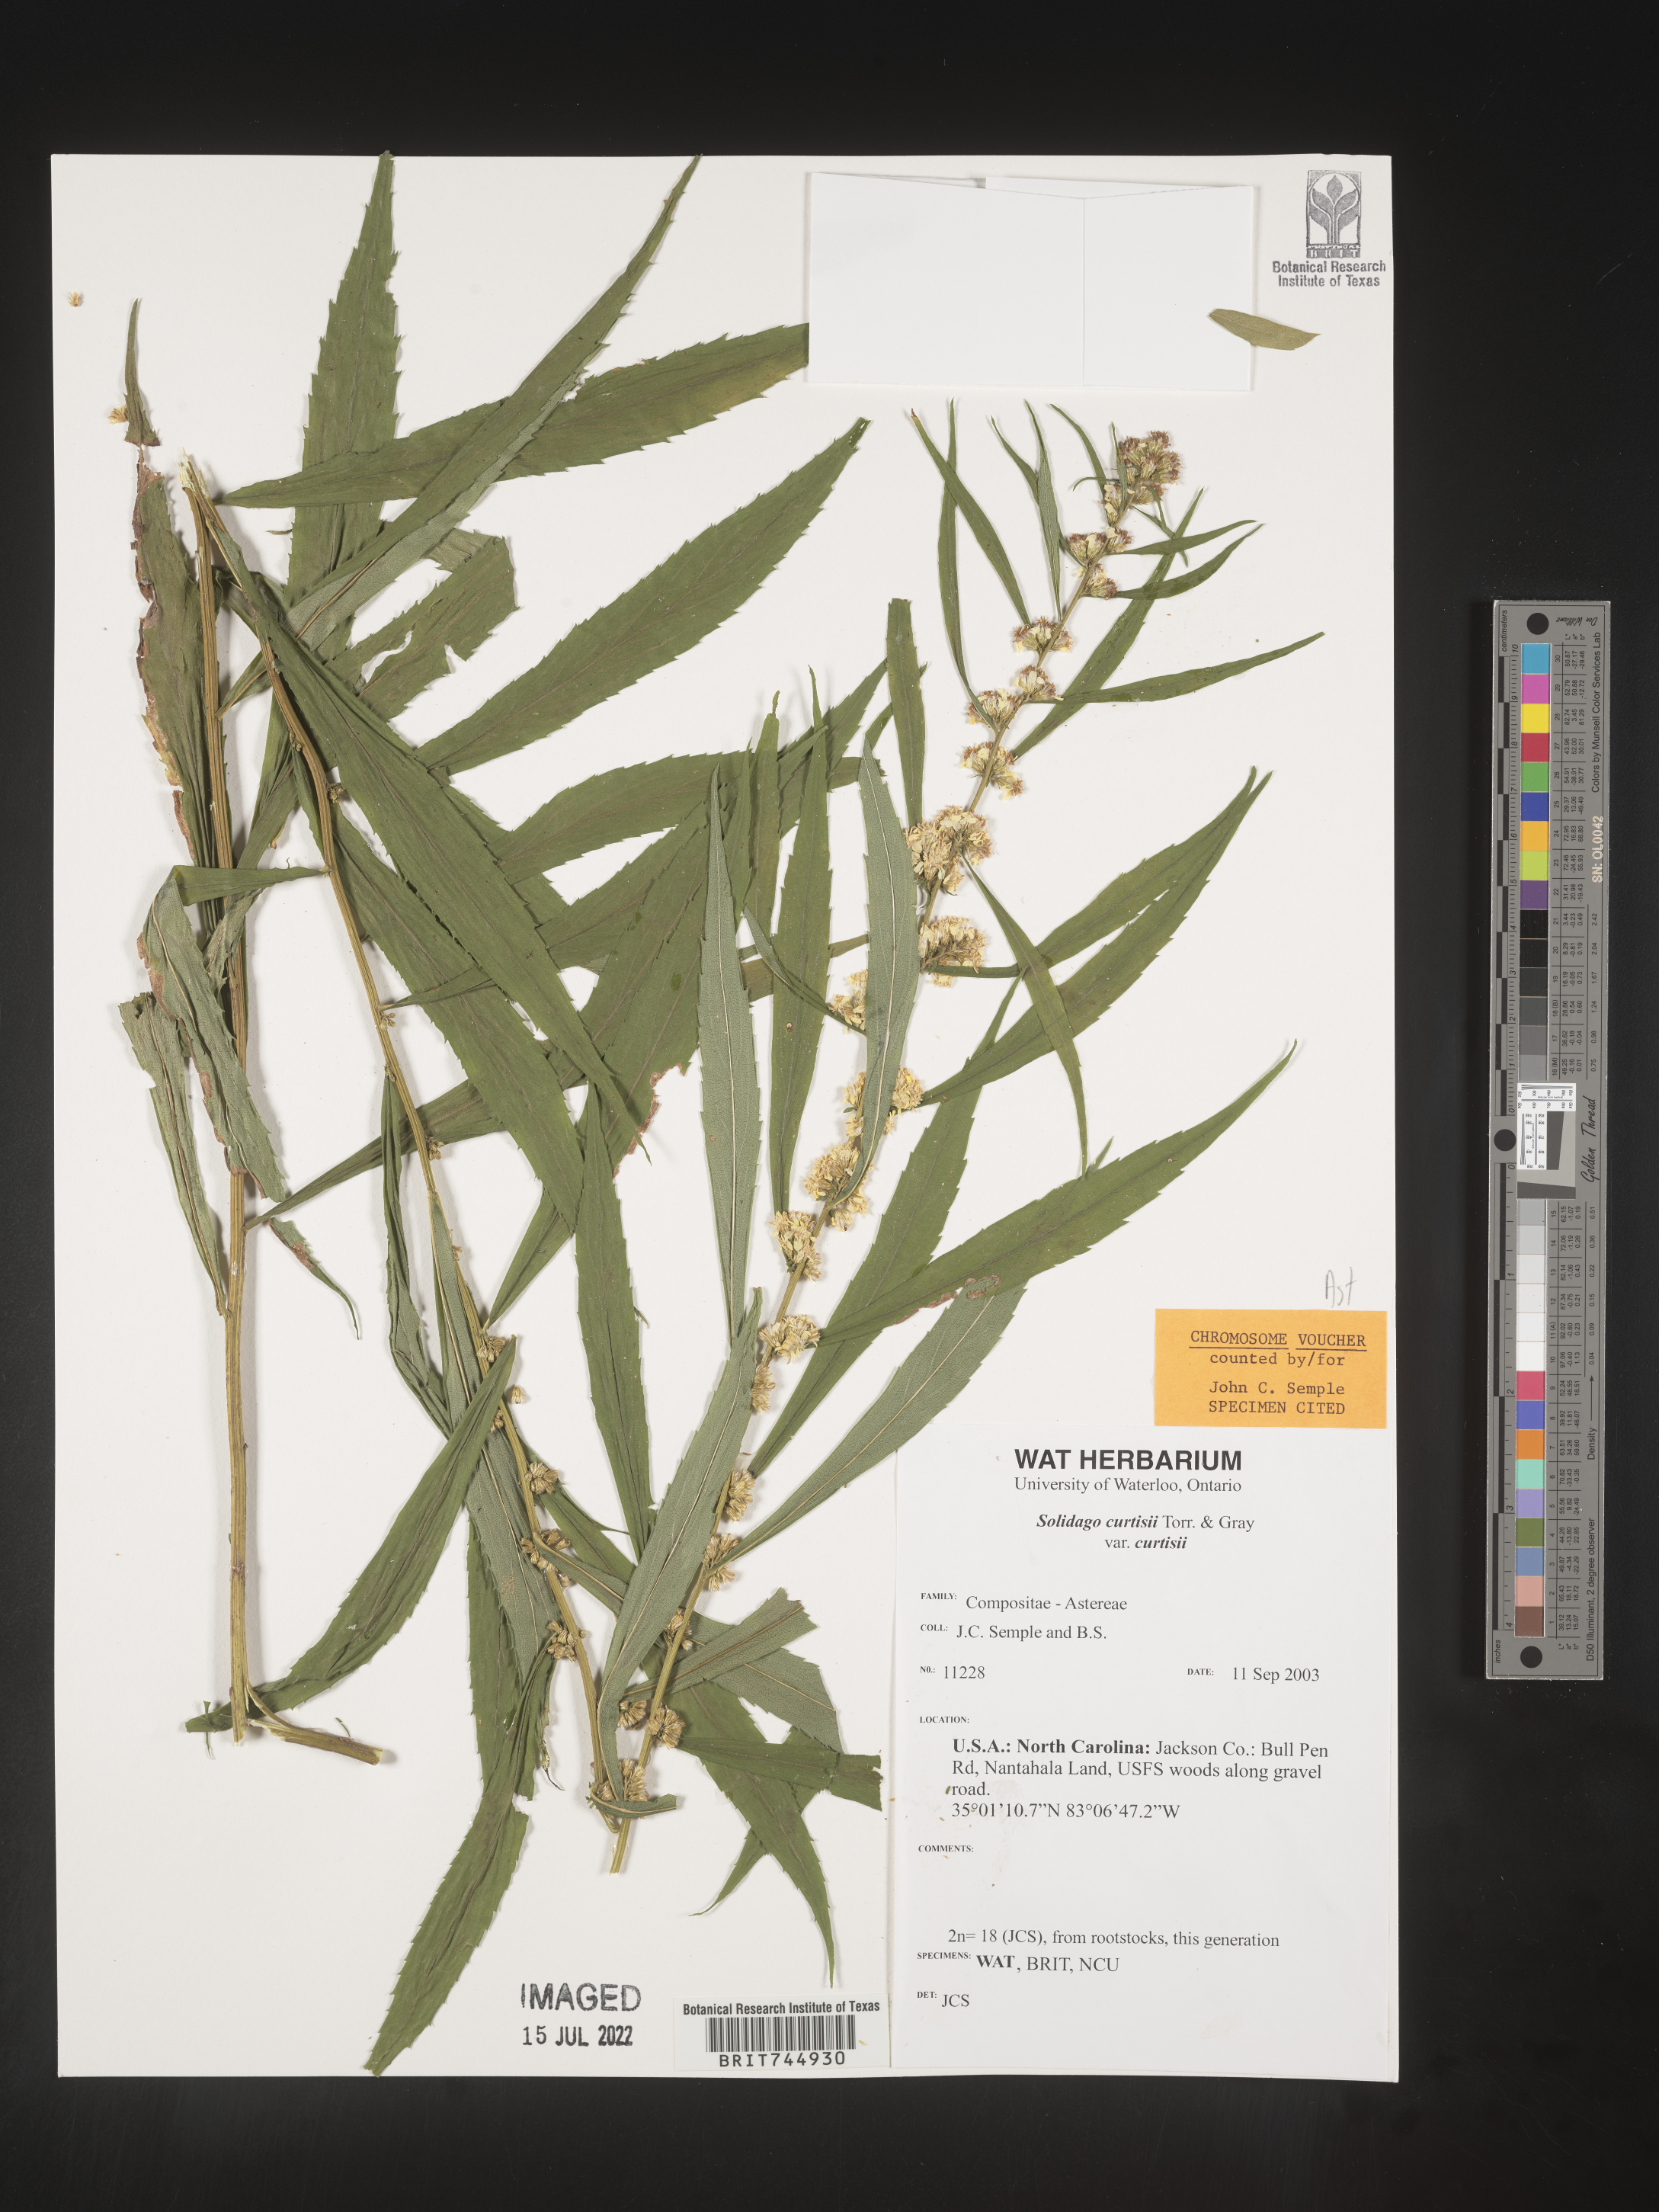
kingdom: Plantae
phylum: Tracheophyta
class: Magnoliopsida
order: Asterales
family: Asteraceae
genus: Solidago
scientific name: Solidago
